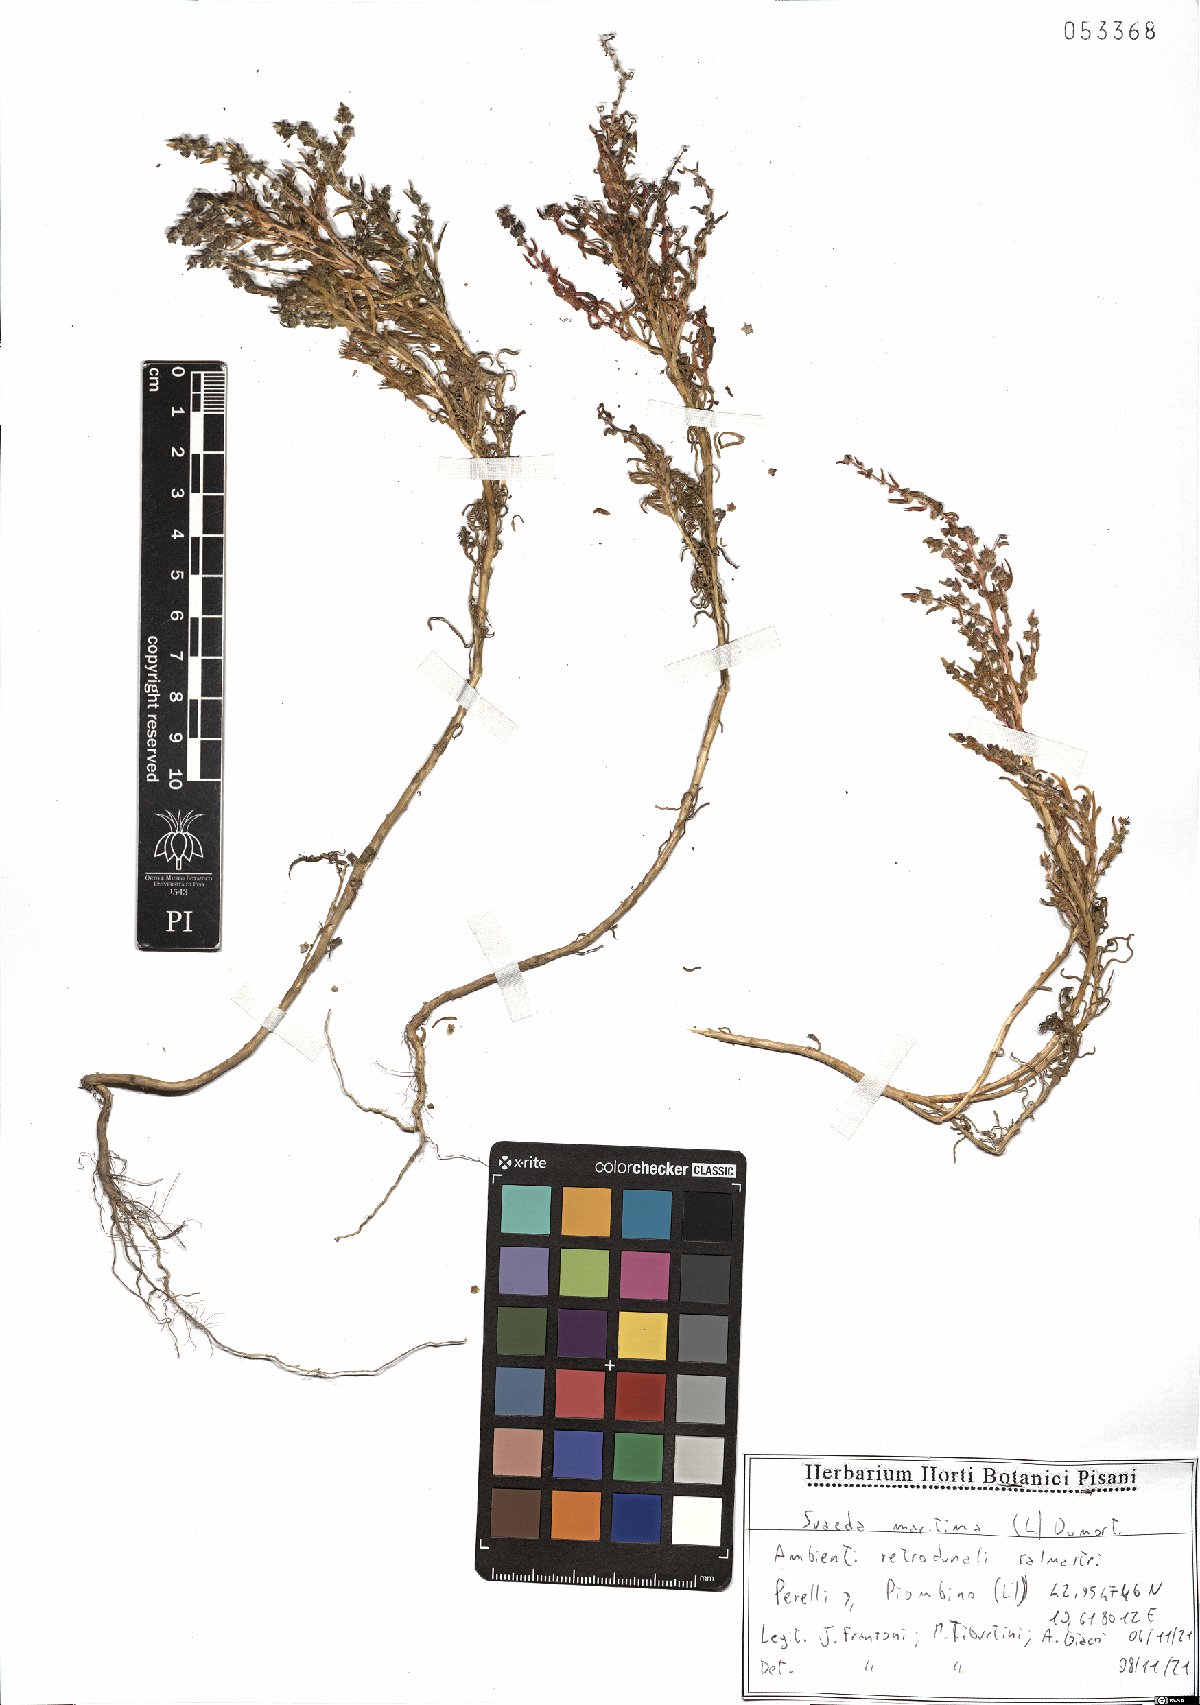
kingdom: Plantae
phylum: Tracheophyta
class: Magnoliopsida
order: Caryophyllales
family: Amaranthaceae
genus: Suaeda
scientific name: Suaeda maritima
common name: Annual sea-blite
